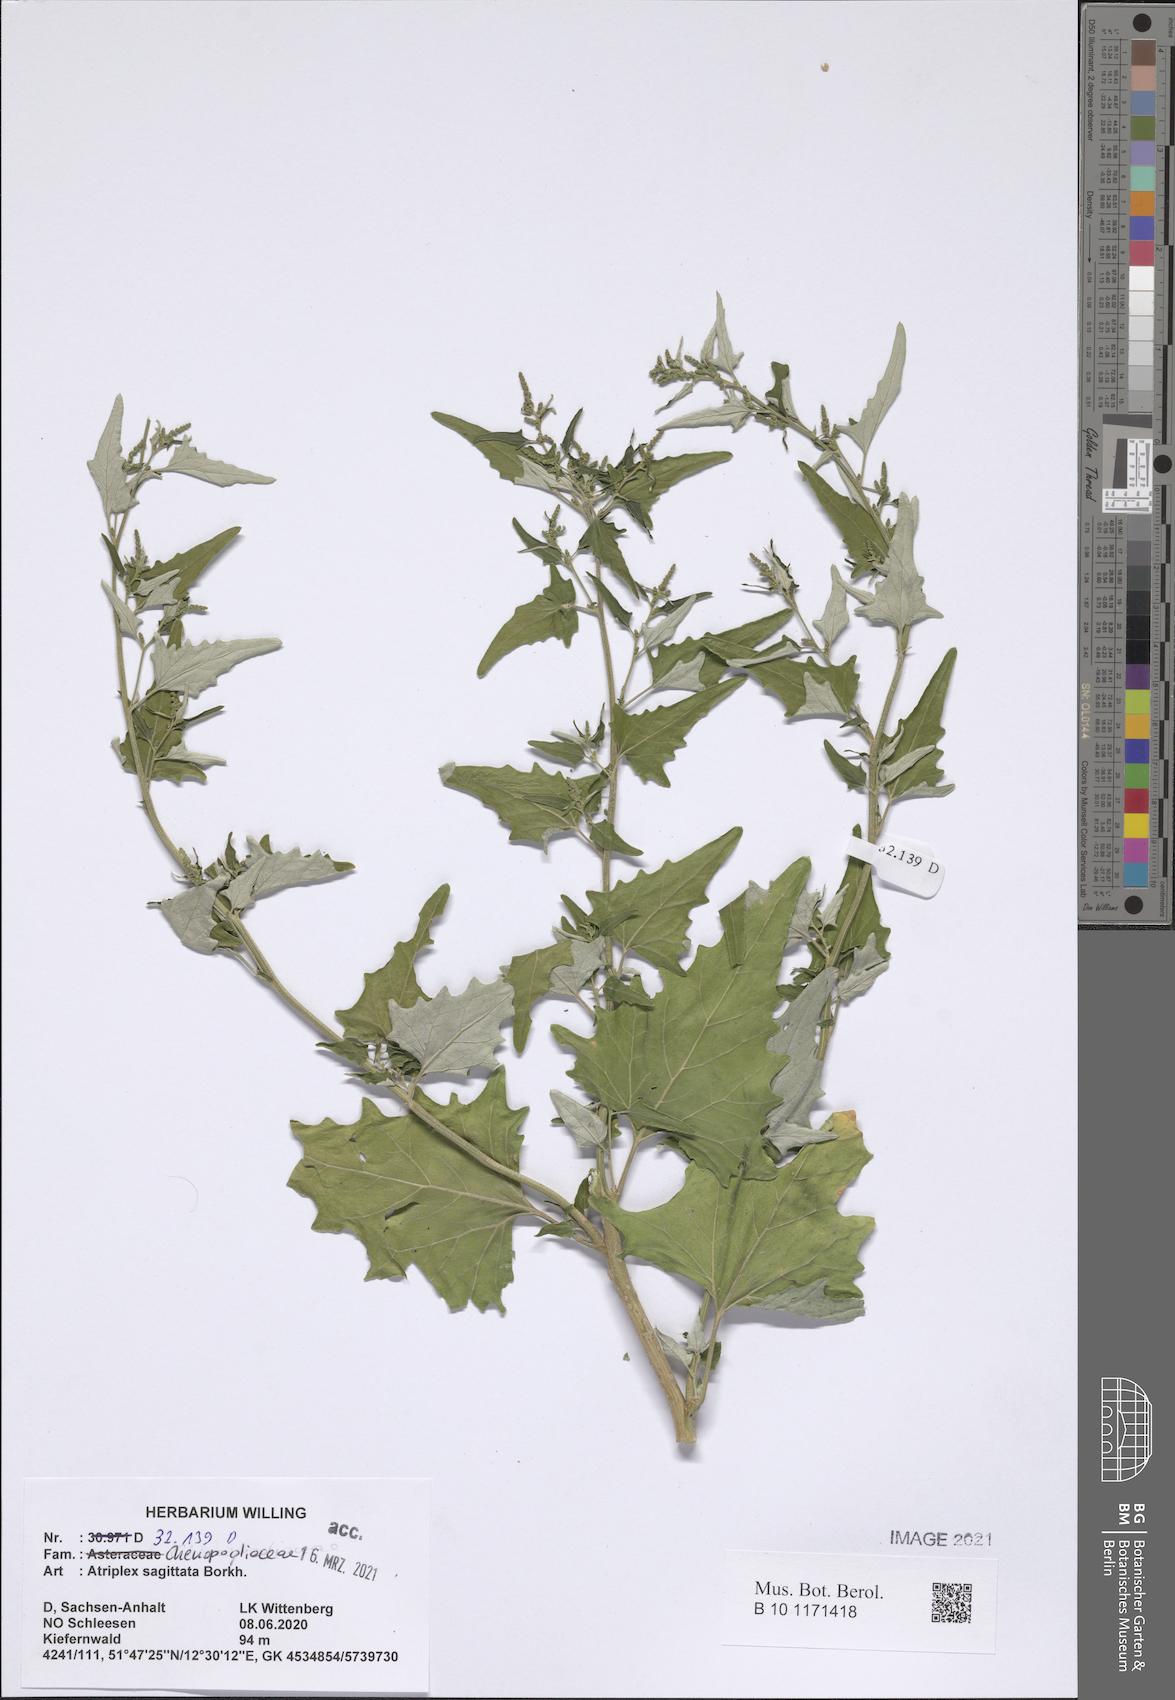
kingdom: Plantae
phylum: Tracheophyta
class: Magnoliopsida
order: Caryophyllales
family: Amaranthaceae
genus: Atriplex
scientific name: Atriplex sagittata
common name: Purple orache
